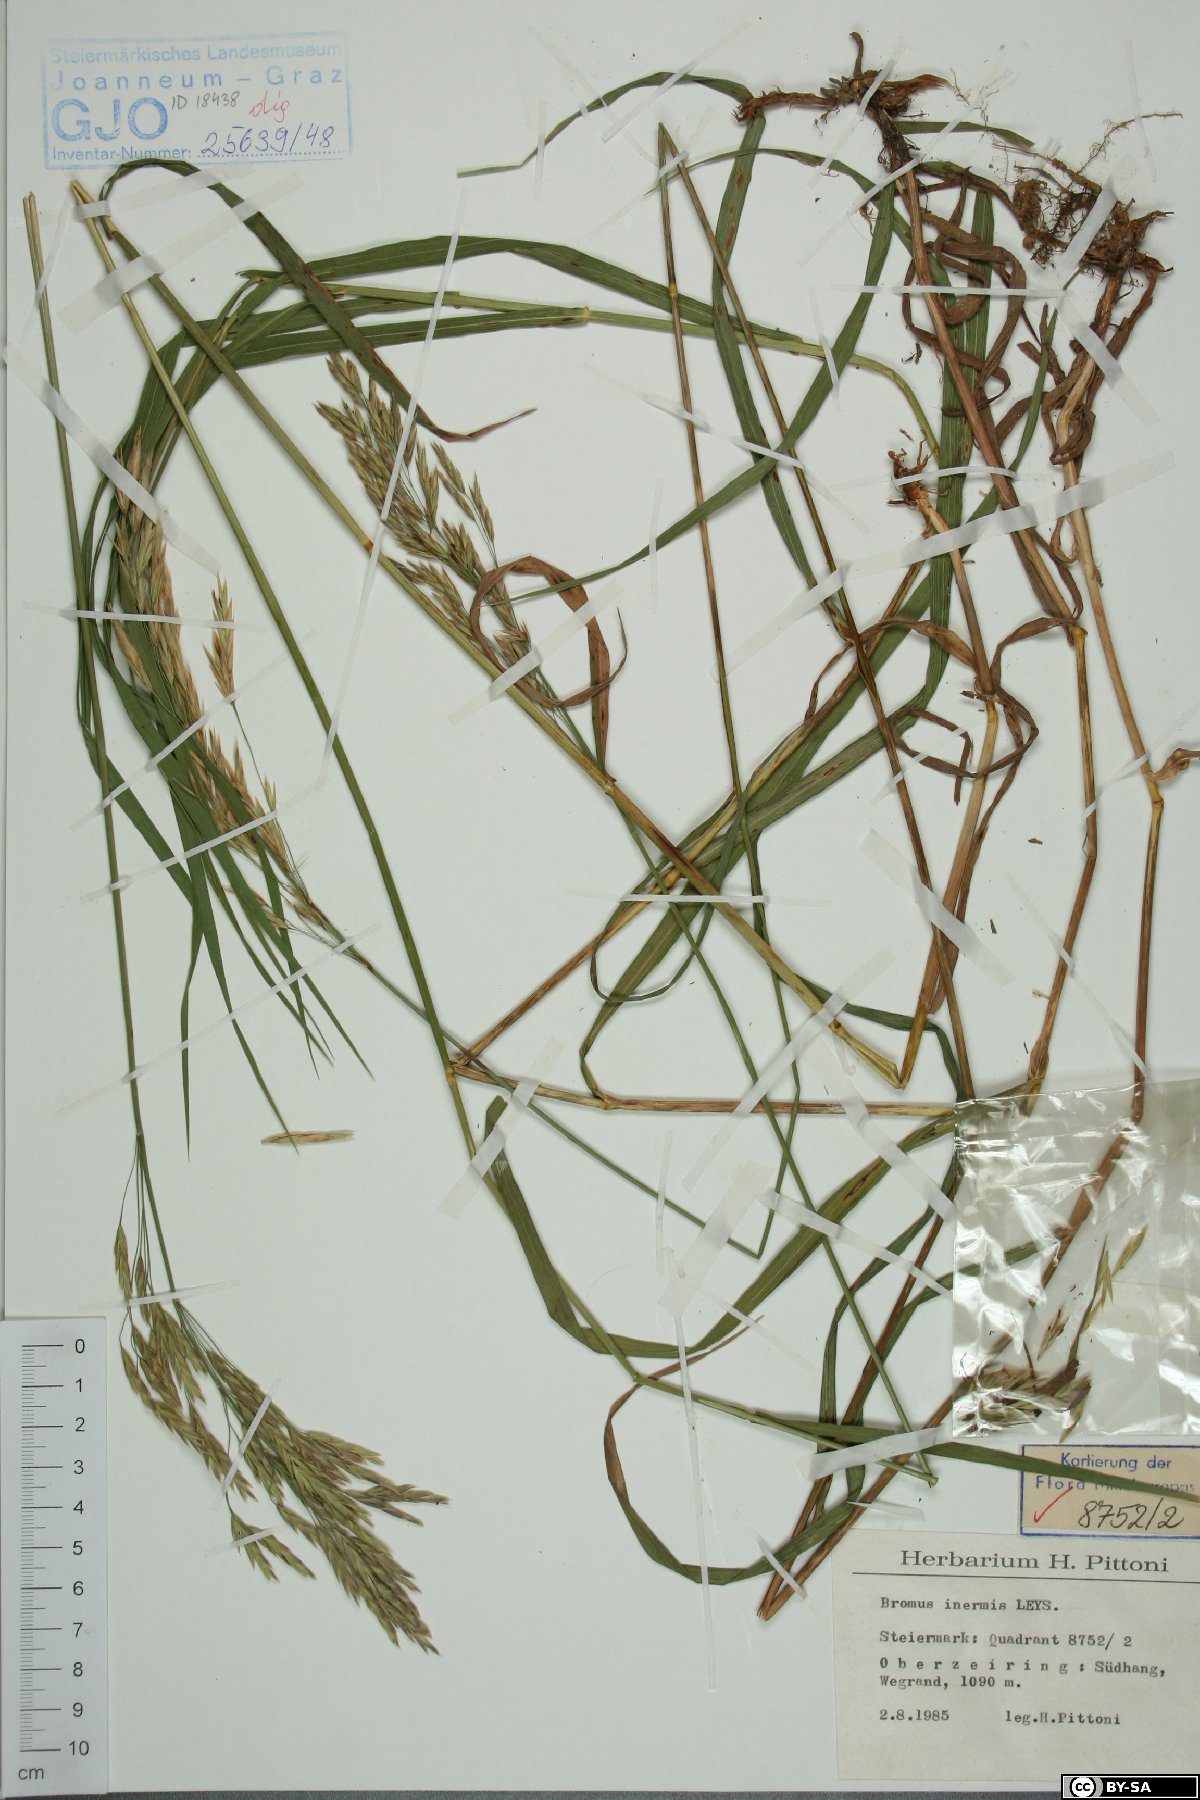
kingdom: Plantae
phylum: Tracheophyta
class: Liliopsida
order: Poales
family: Poaceae
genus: Bromus
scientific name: Bromus inermis
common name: Smooth brome
